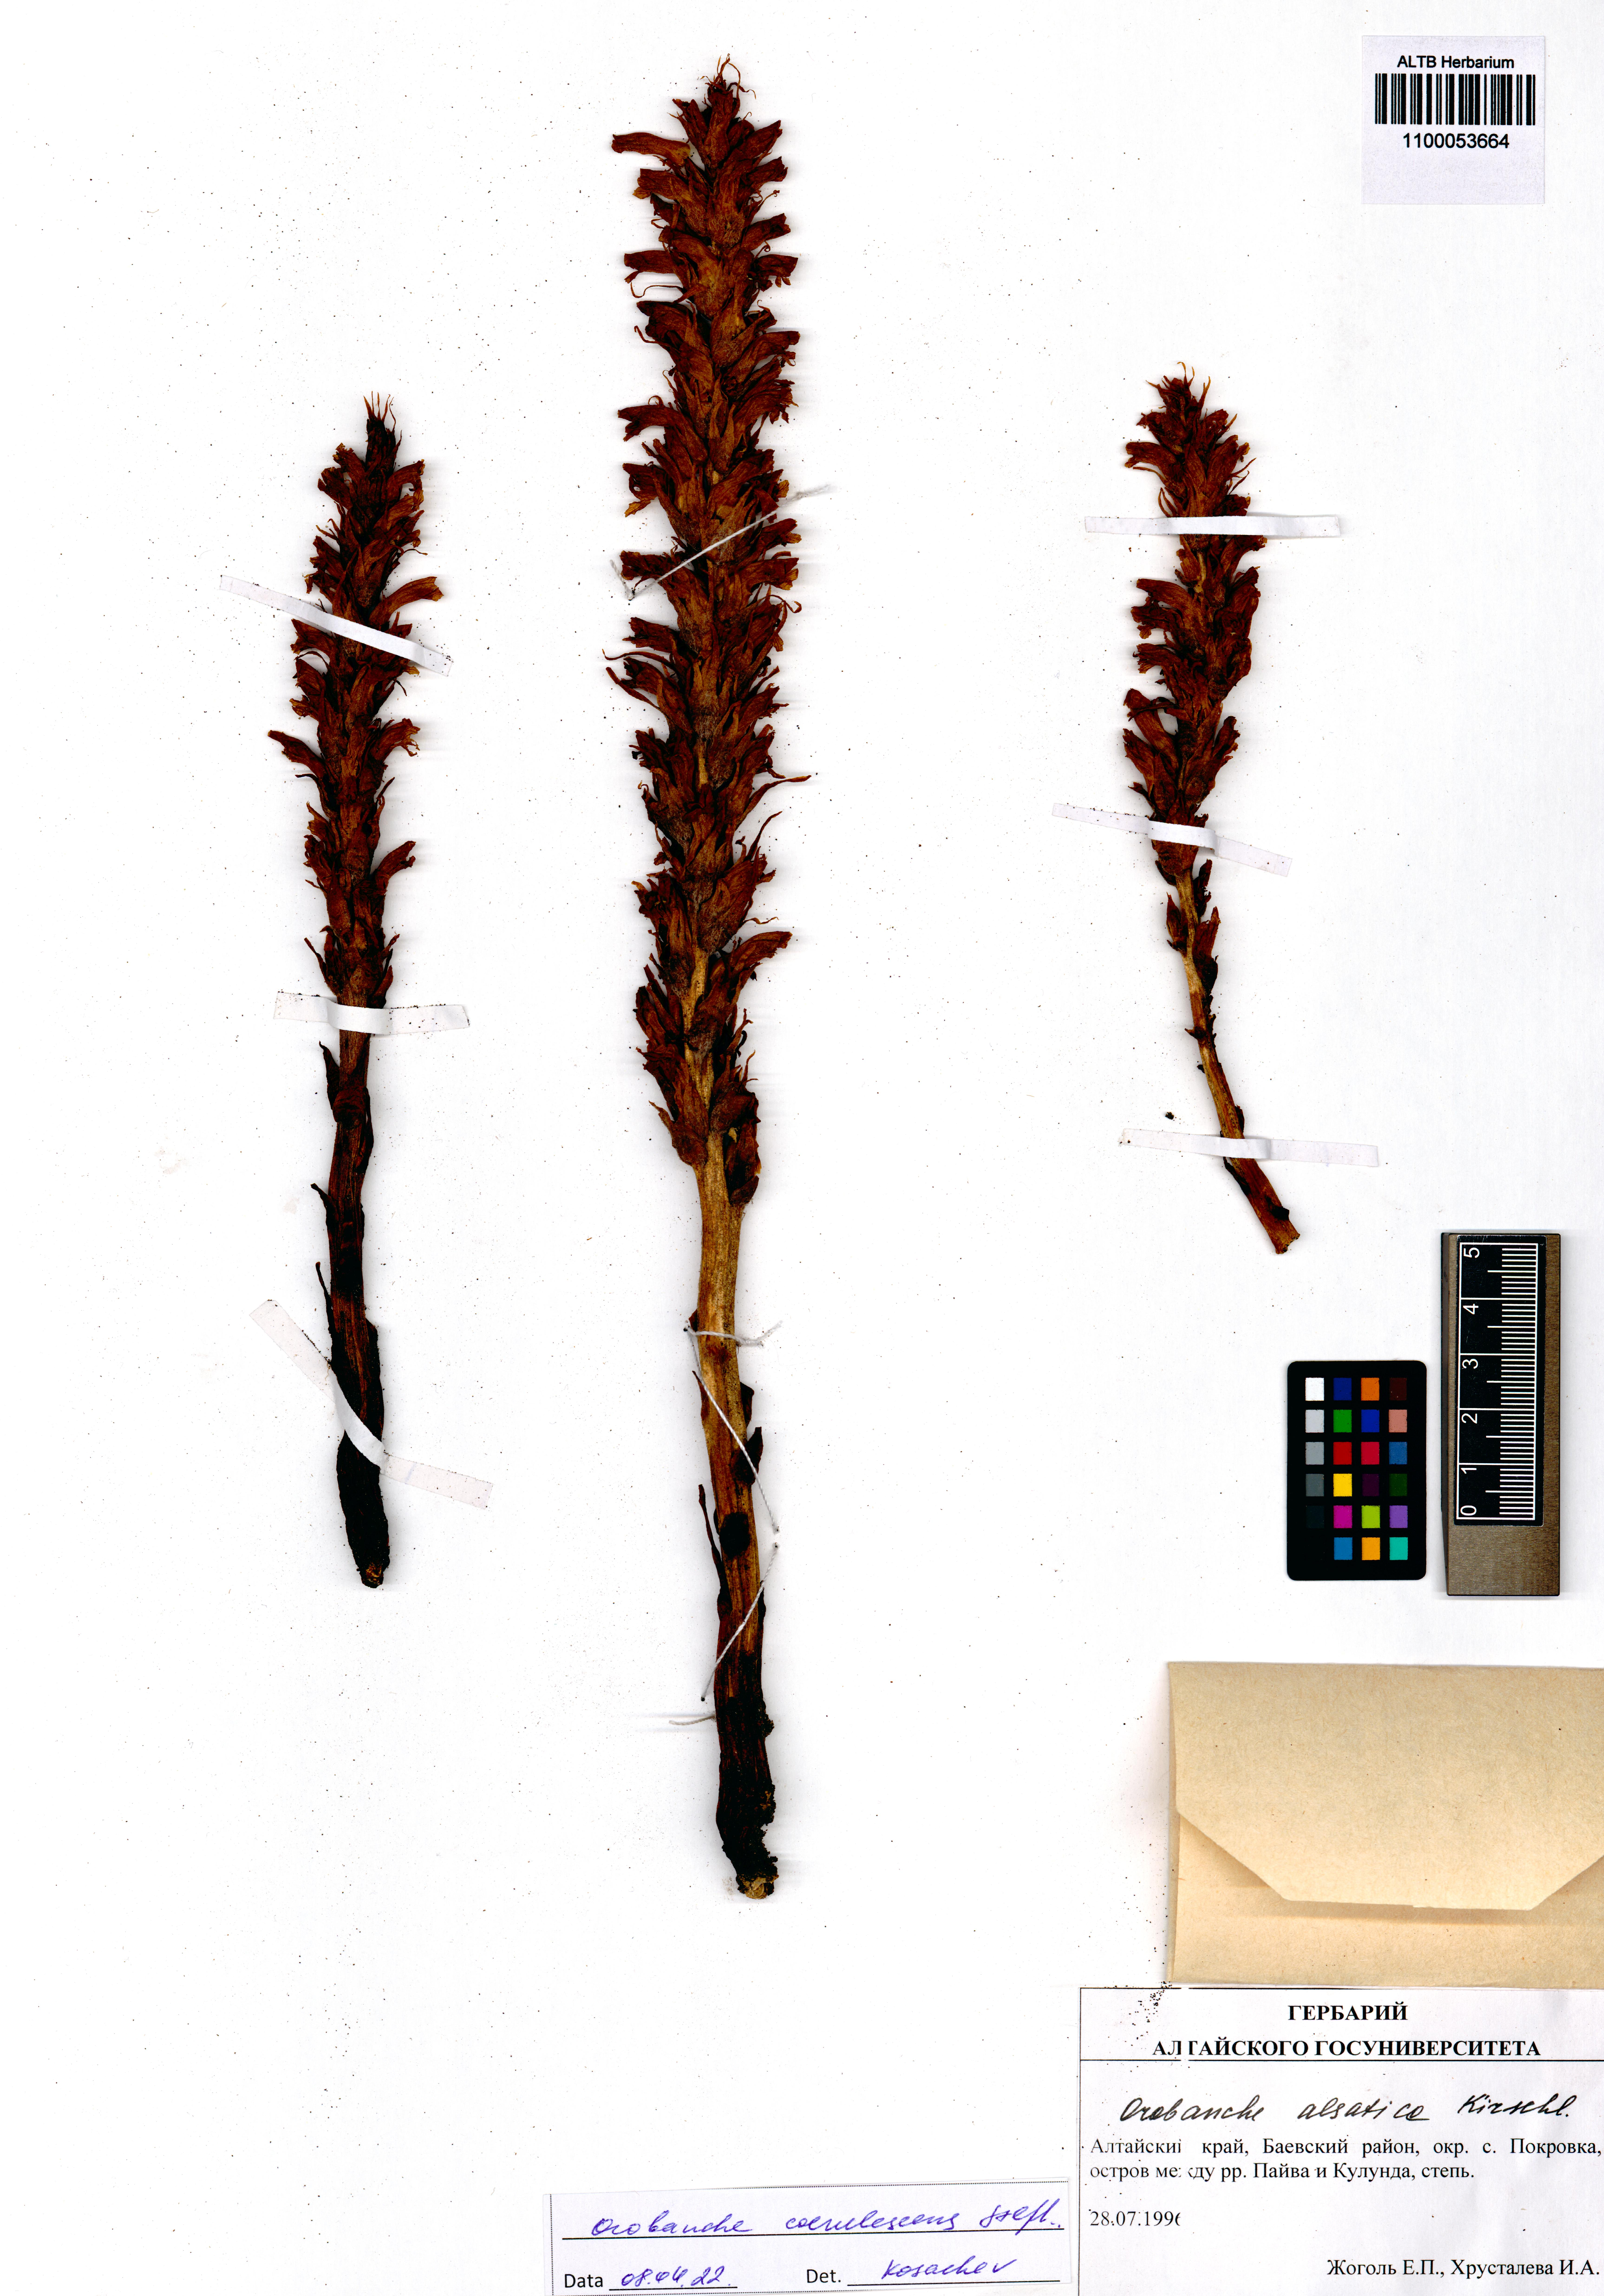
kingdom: Plantae
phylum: Tracheophyta
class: Magnoliopsida
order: Lamiales
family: Orobanchaceae
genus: Orobanche
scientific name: Orobanche coerulescens
